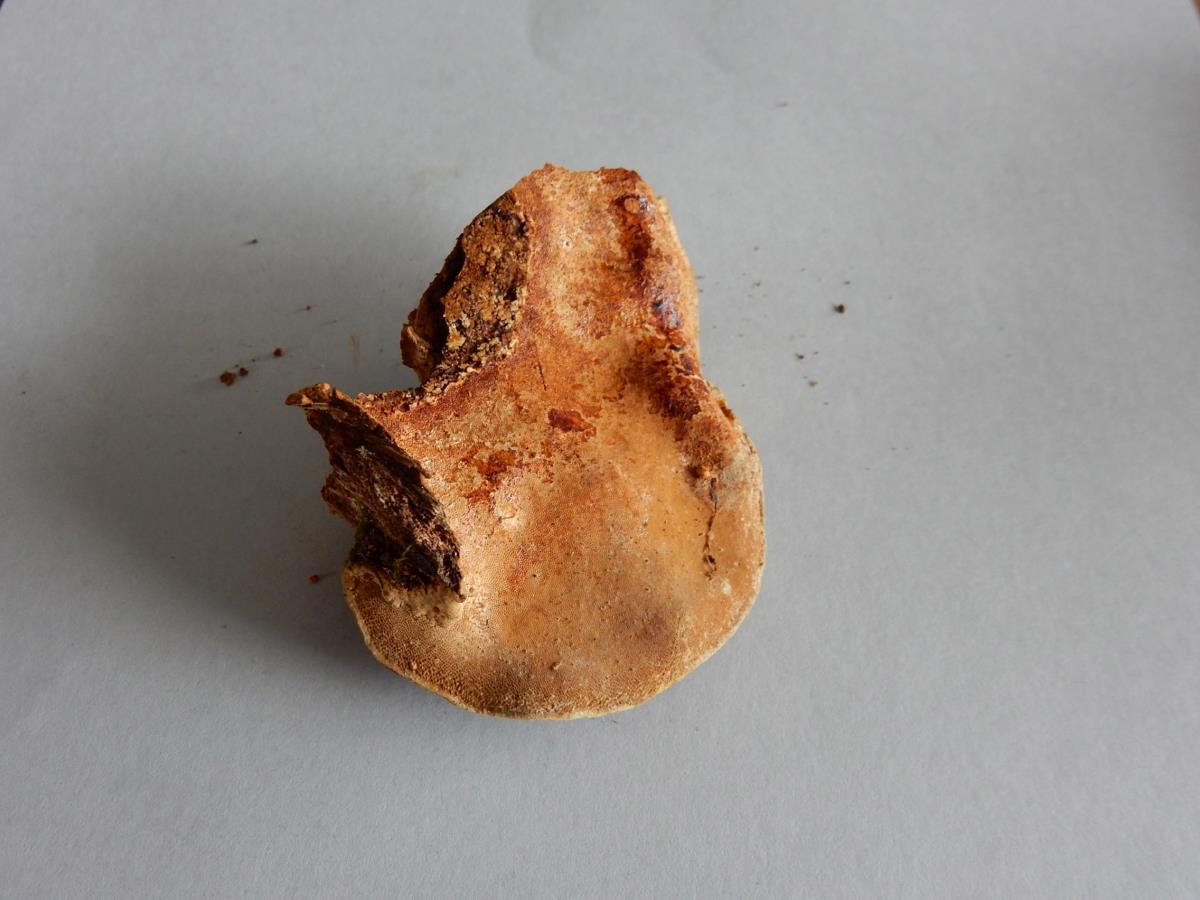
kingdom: Fungi
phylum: Basidiomycota
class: Agaricomycetes
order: Polyporales
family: Polyporaceae
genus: Australoporus
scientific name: Australoporus tasmanicus
